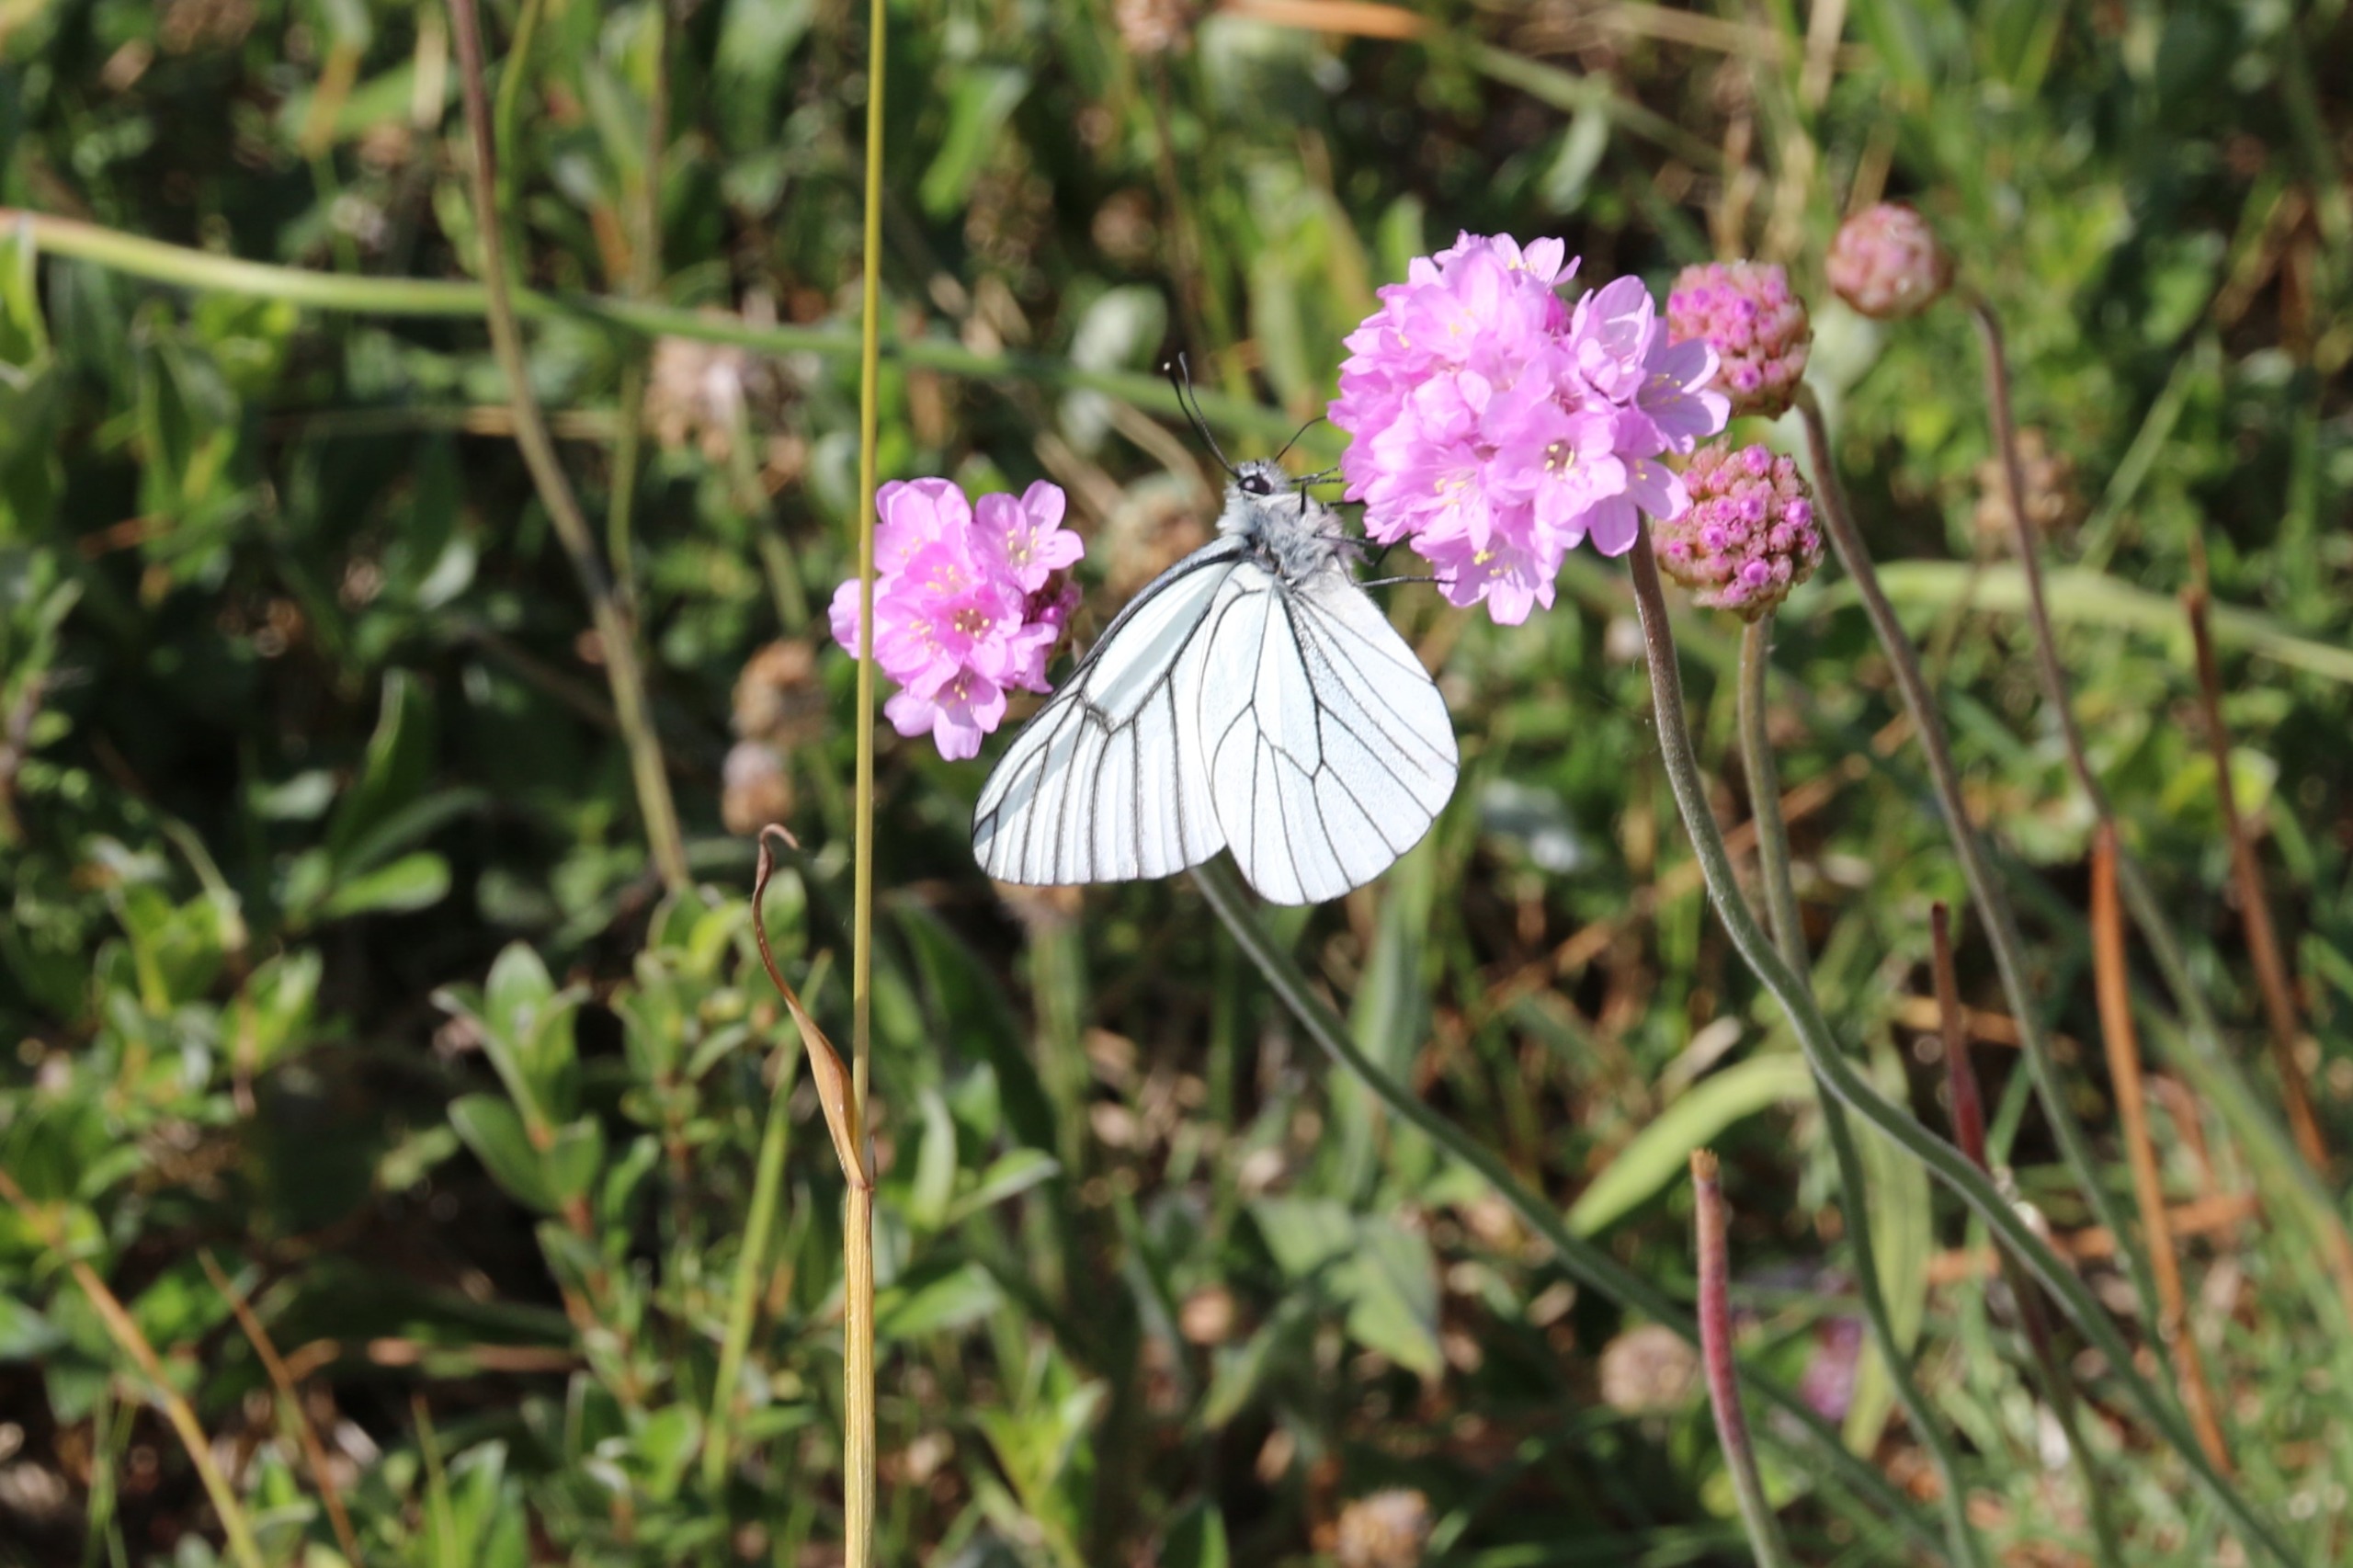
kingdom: Animalia
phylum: Arthropoda
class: Insecta
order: Lepidoptera
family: Pieridae
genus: Aporia
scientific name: Aporia crataegi
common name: Sortåret hvidvinge
